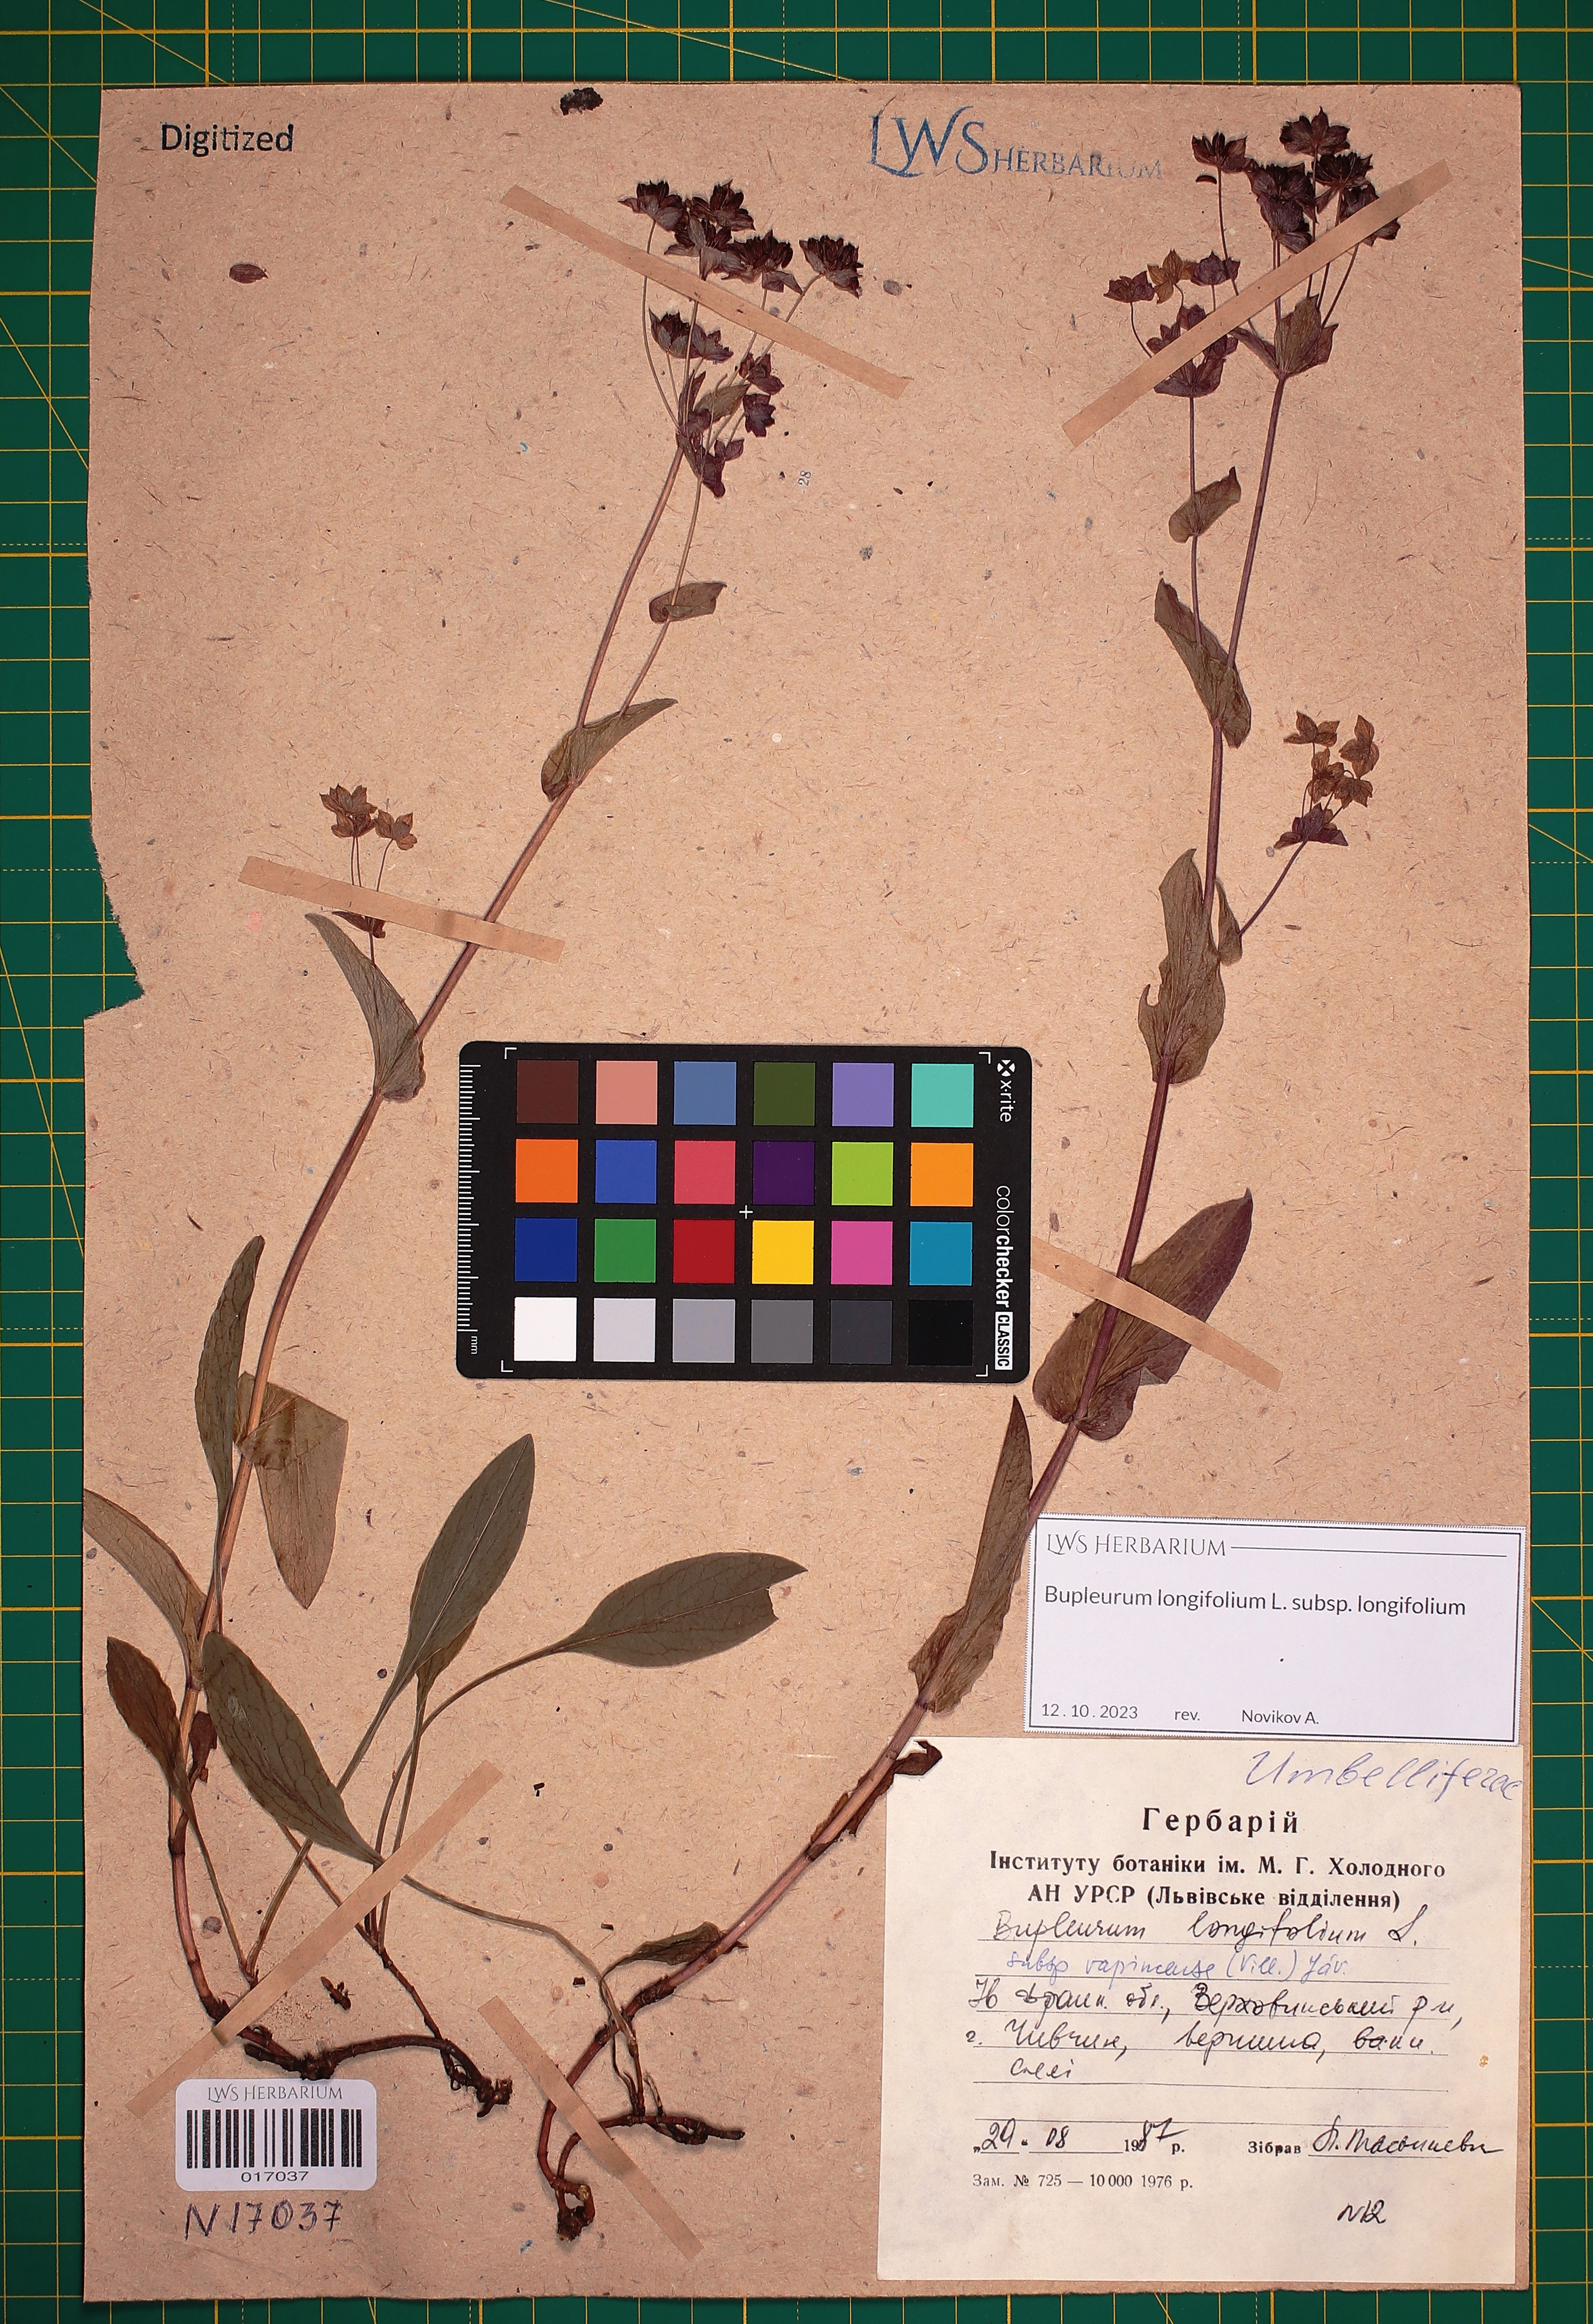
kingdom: Plantae
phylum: Tracheophyta
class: Magnoliopsida
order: Apiales
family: Apiaceae
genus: Bupleurum
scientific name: Bupleurum longifolium
